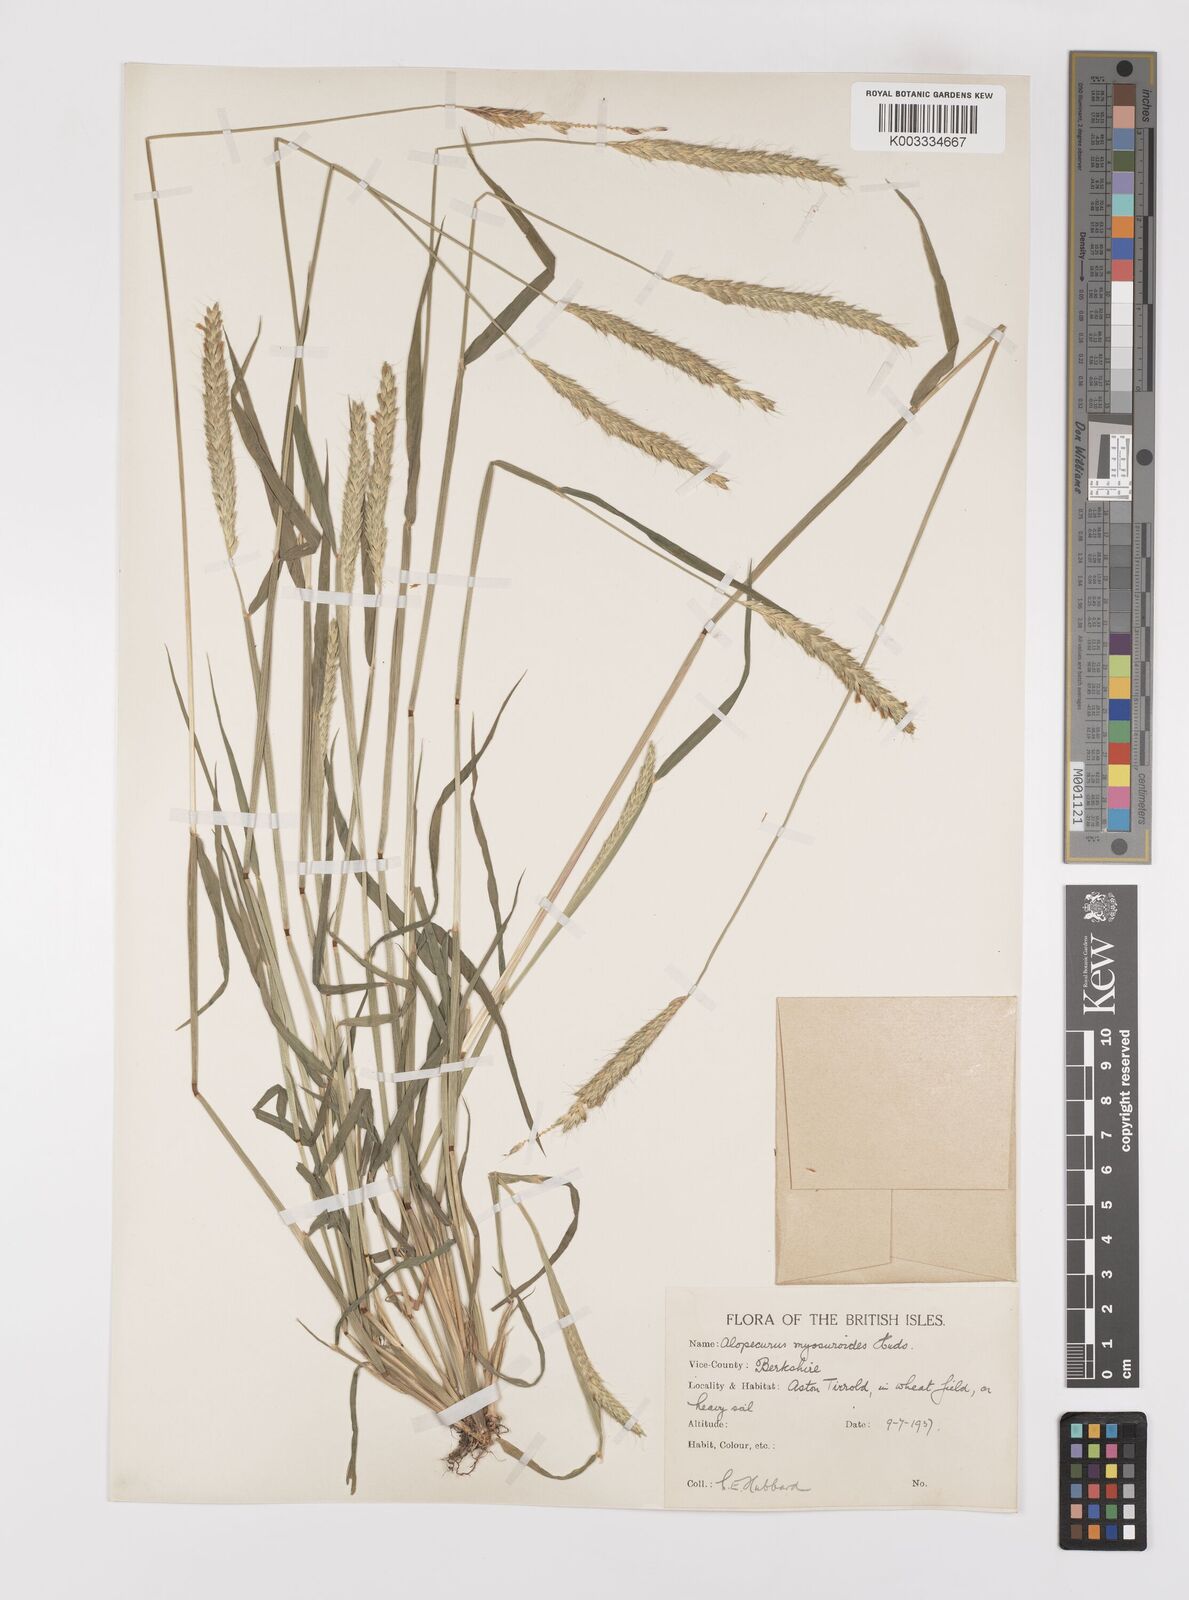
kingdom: Plantae
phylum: Tracheophyta
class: Liliopsida
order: Poales
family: Poaceae
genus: Alopecurus
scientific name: Alopecurus myosuroides
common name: Black-grass
